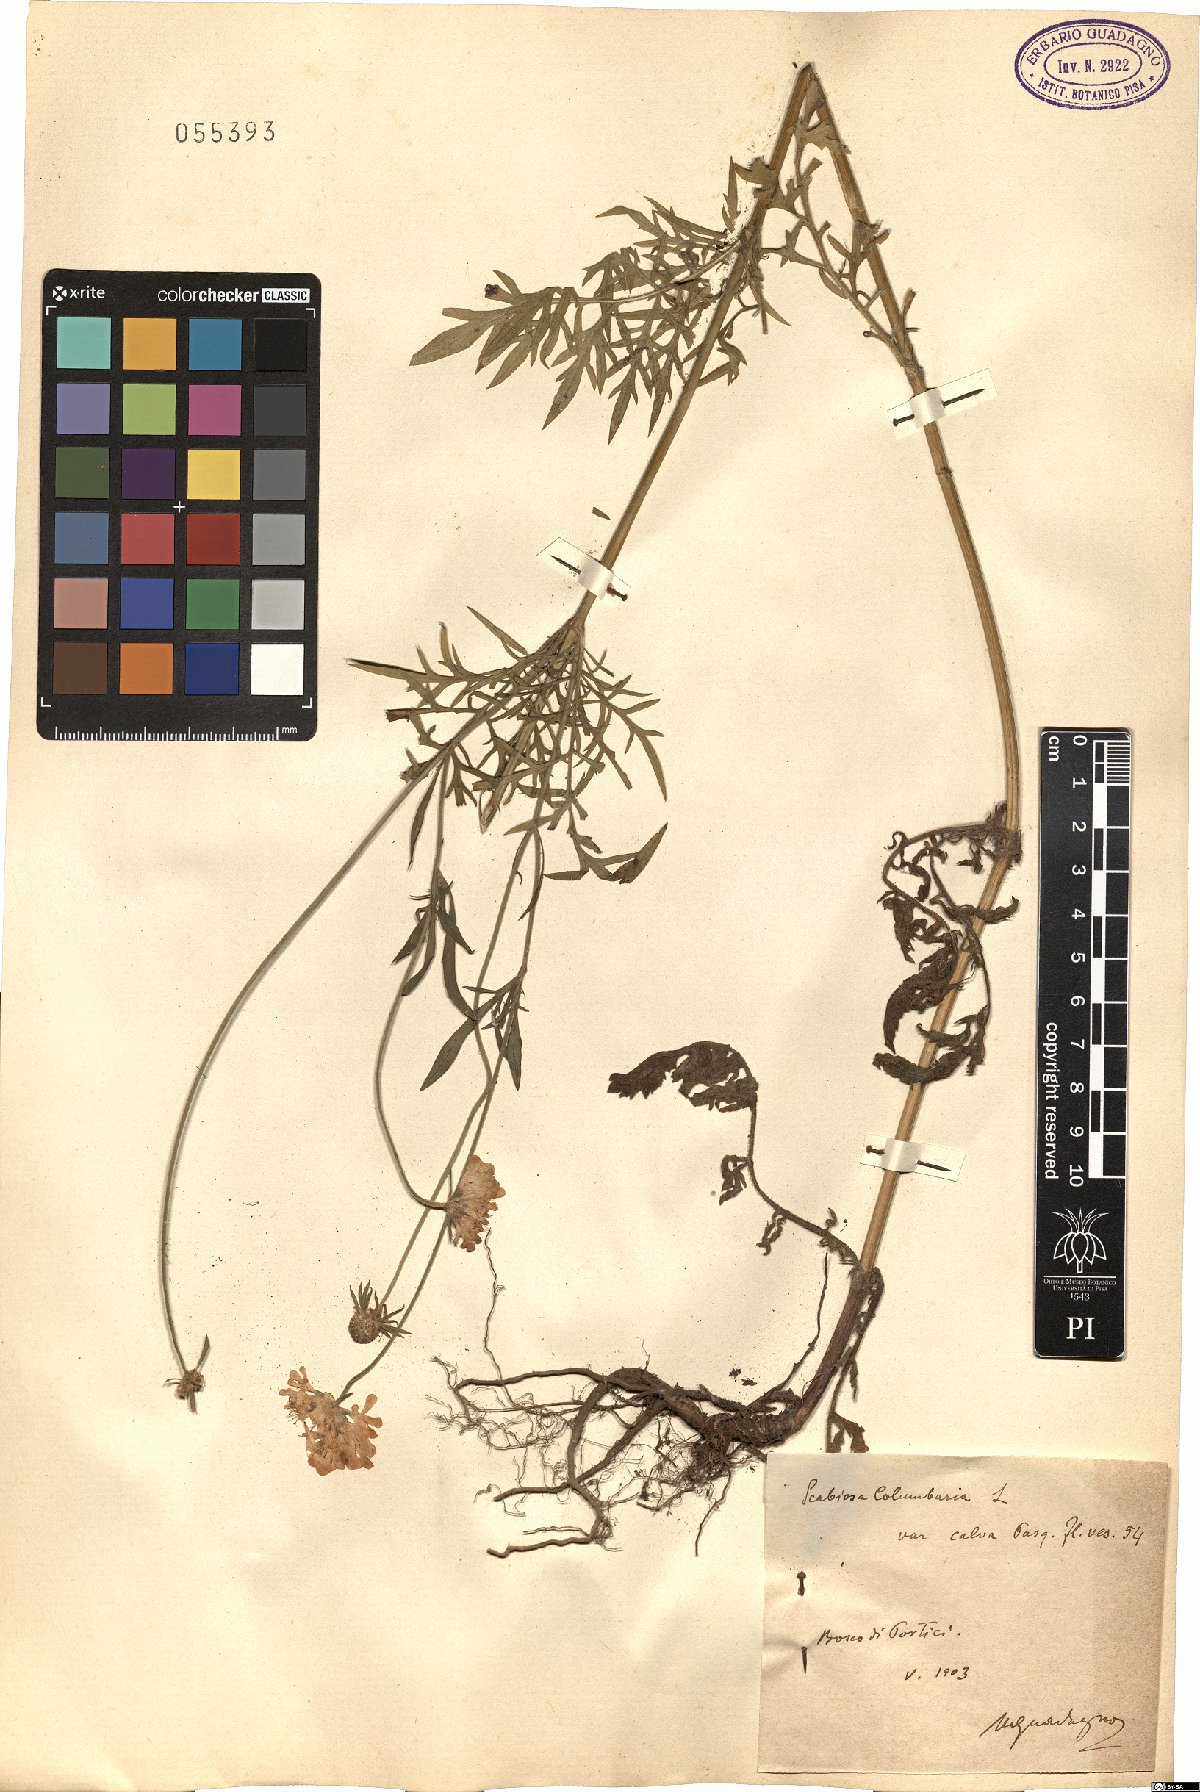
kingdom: Plantae
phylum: Tracheophyta
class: Magnoliopsida
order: Dipsacales
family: Caprifoliaceae
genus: Scabiosa
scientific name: Scabiosa columbaria
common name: Small scabious
